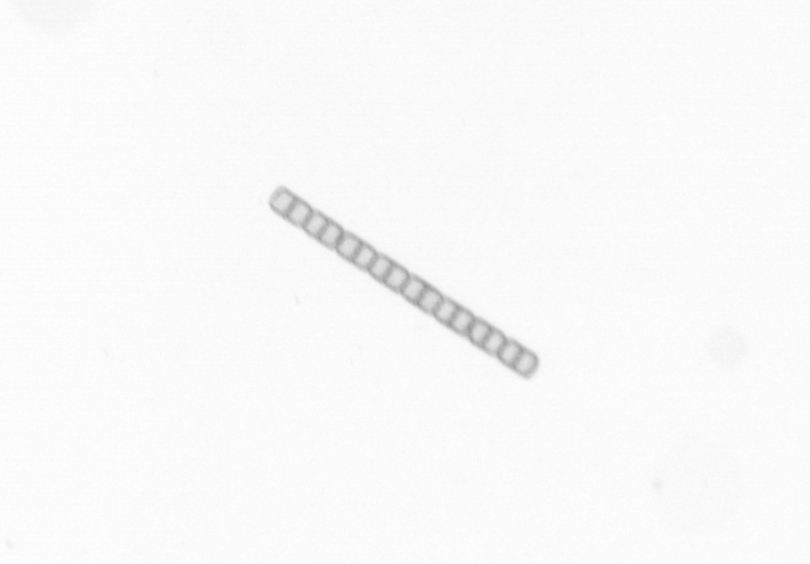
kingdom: Chromista
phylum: Ochrophyta
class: Bacillariophyceae
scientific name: Bacillariophyceae
